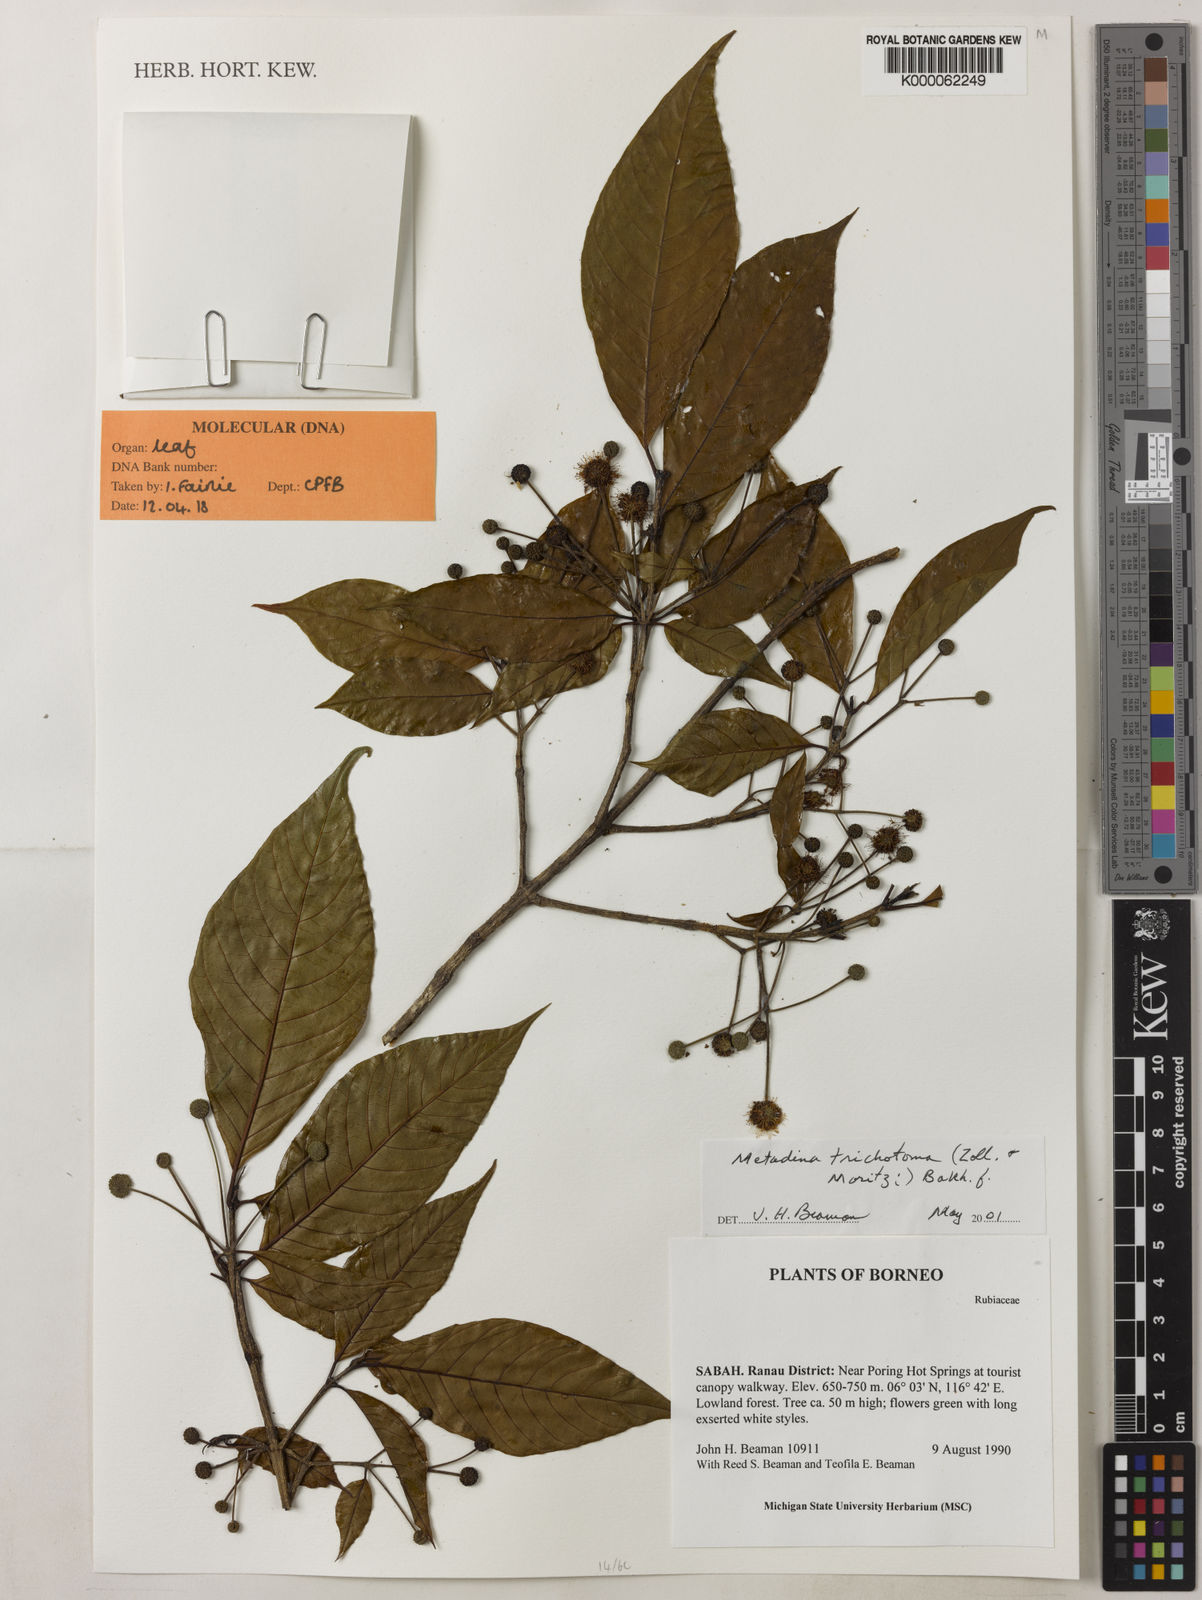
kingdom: Plantae
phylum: Tracheophyta
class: Magnoliopsida
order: Gentianales
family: Rubiaceae
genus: Adina
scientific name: Adina
